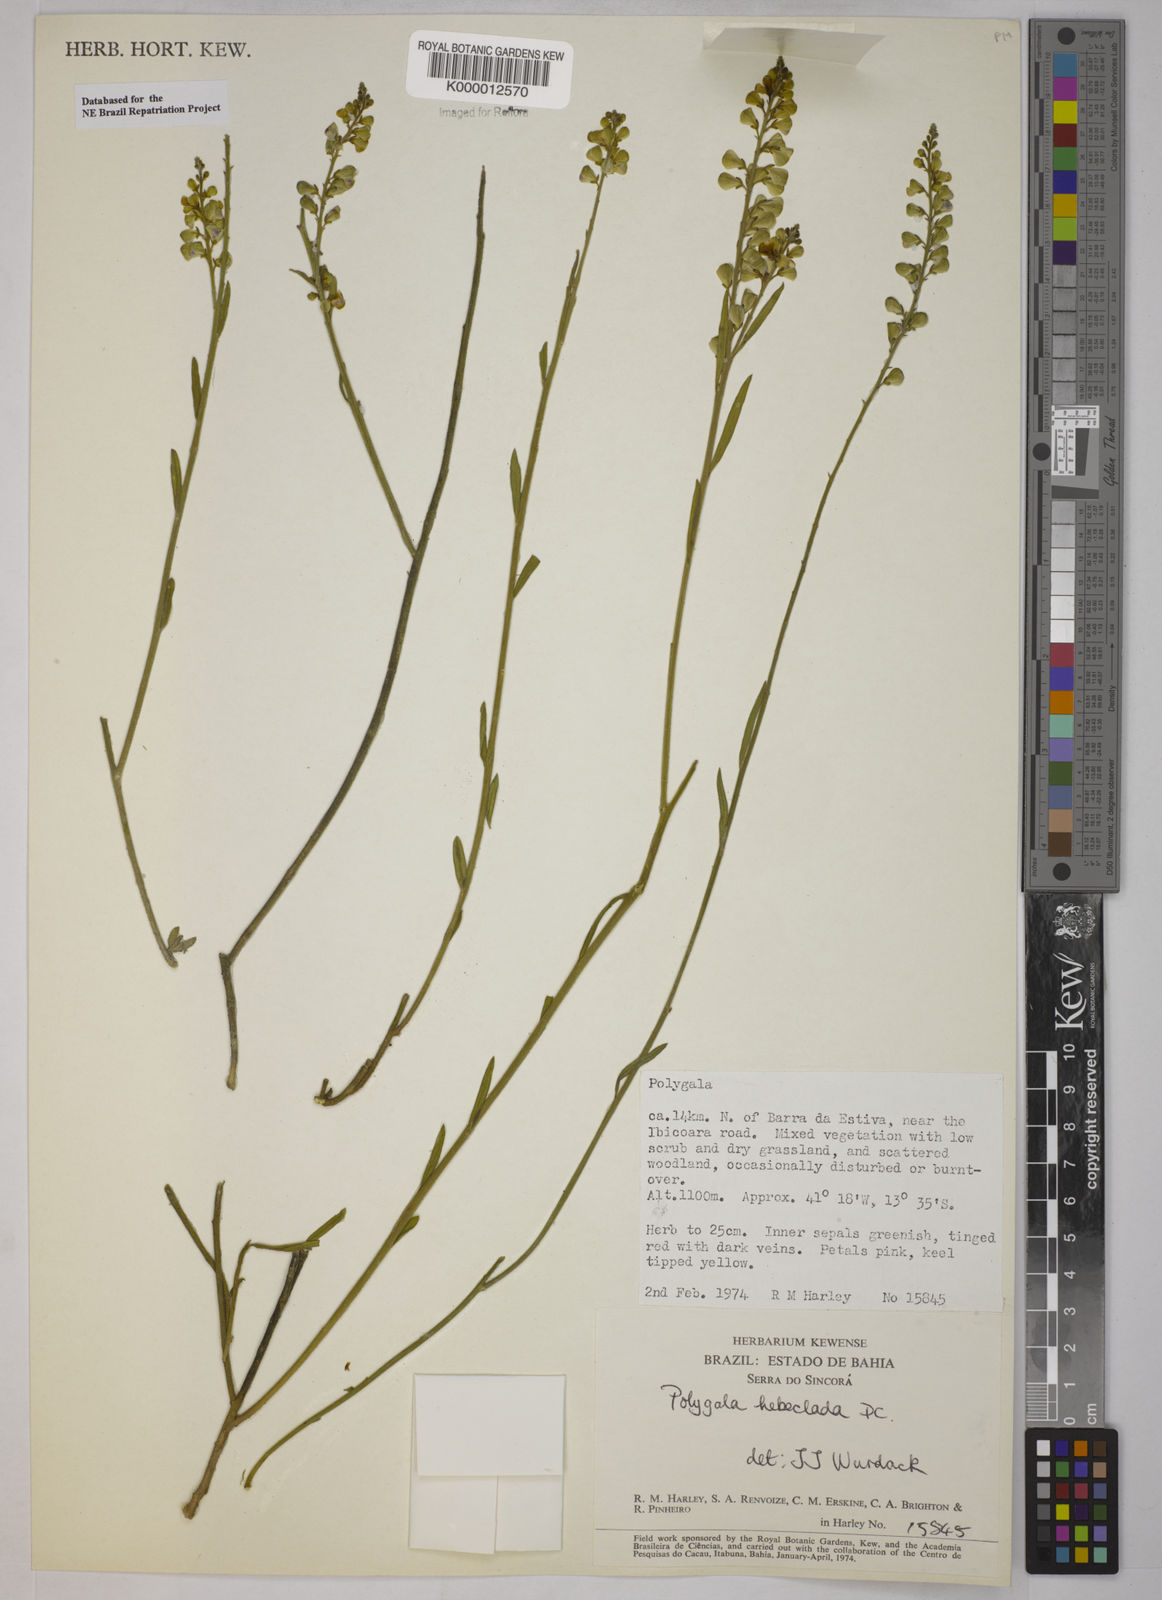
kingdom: Plantae
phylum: Tracheophyta
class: Magnoliopsida
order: Fabales
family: Polygalaceae
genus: Asemeia
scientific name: Asemeia hebeclada
